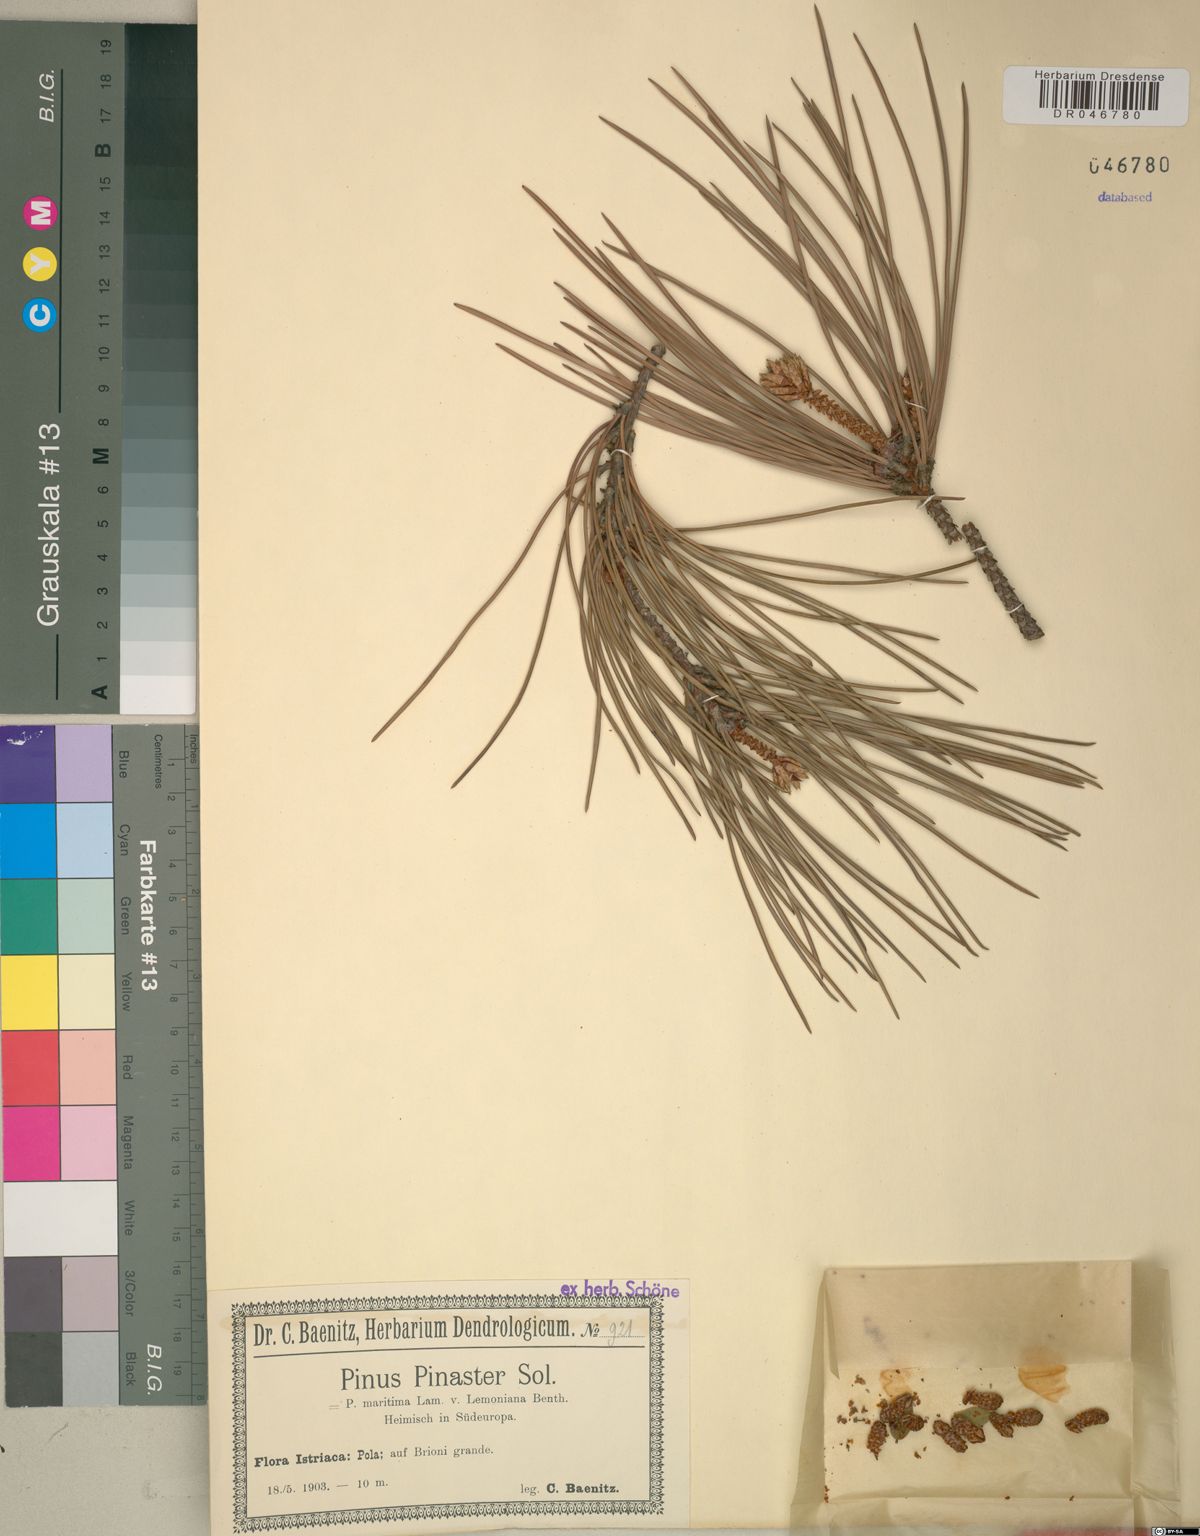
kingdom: Plantae
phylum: Tracheophyta
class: Pinopsida
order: Pinales
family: Pinaceae
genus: Pinus
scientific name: Pinus pinaster
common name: Maritime pine
